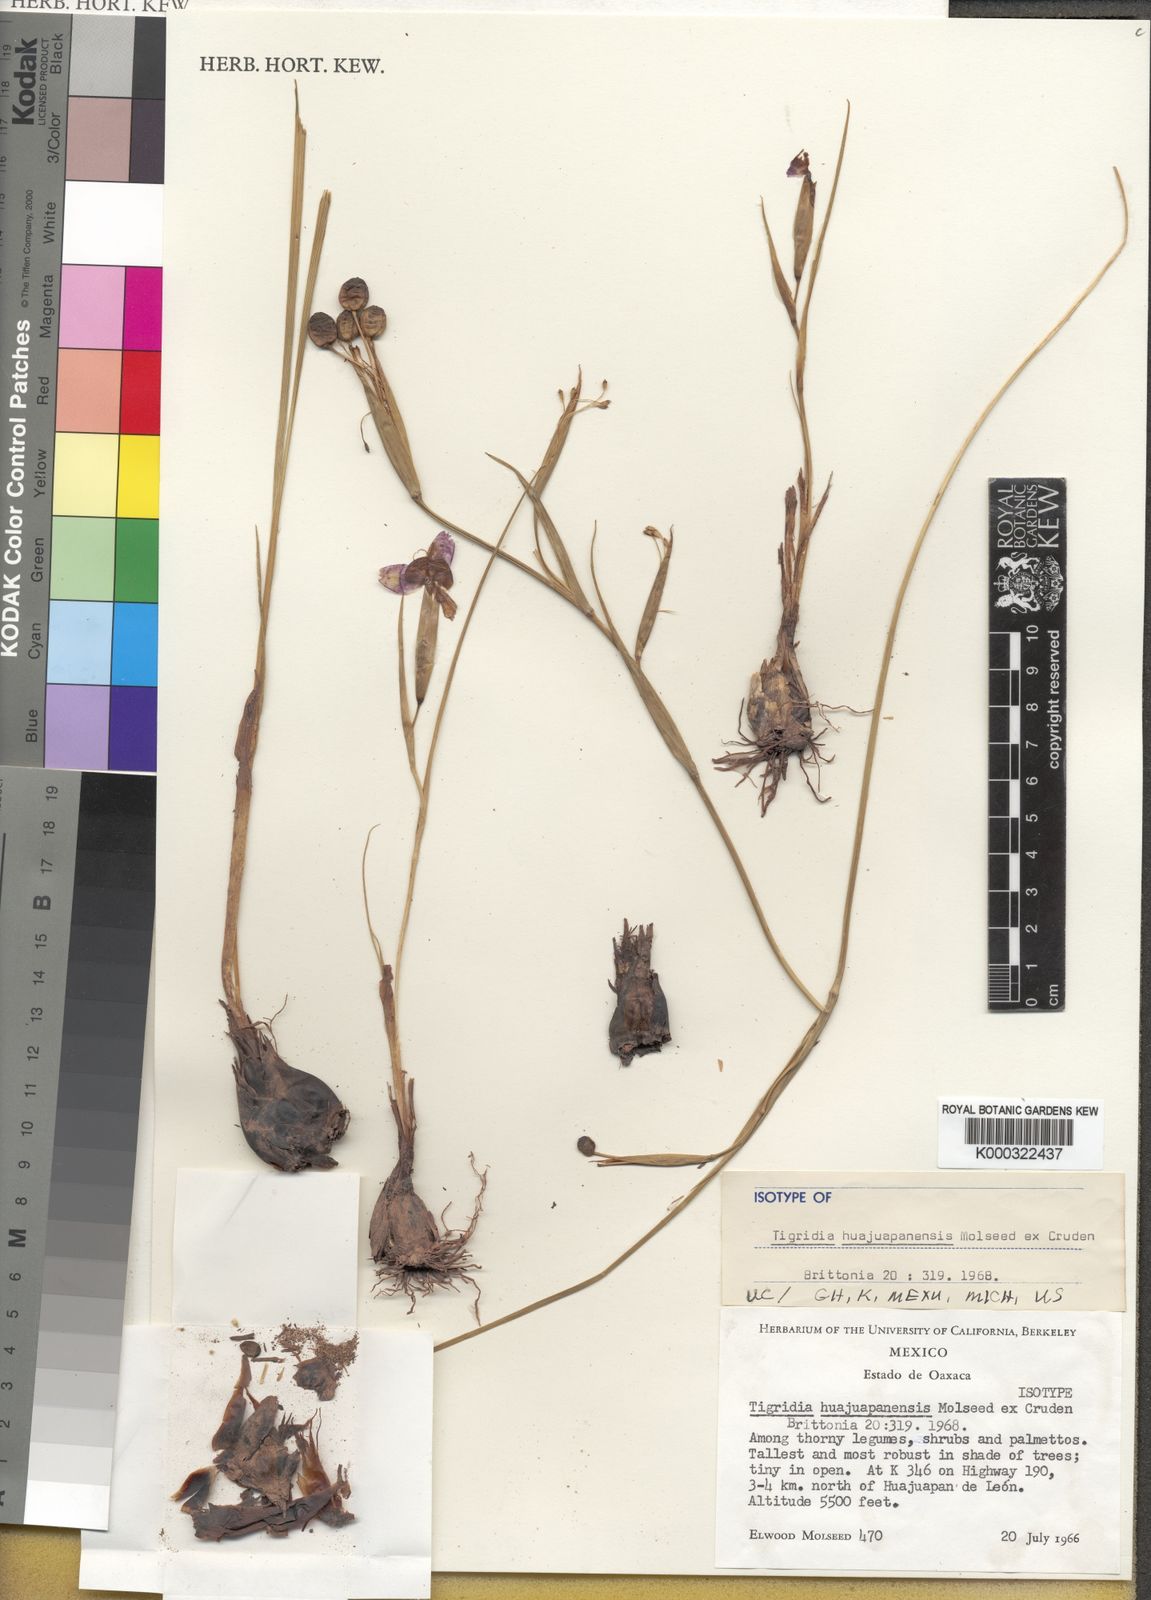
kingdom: Plantae
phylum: Tracheophyta
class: Liliopsida
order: Asparagales
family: Iridaceae
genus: Tigridia
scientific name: Tigridia huajuapanensis
